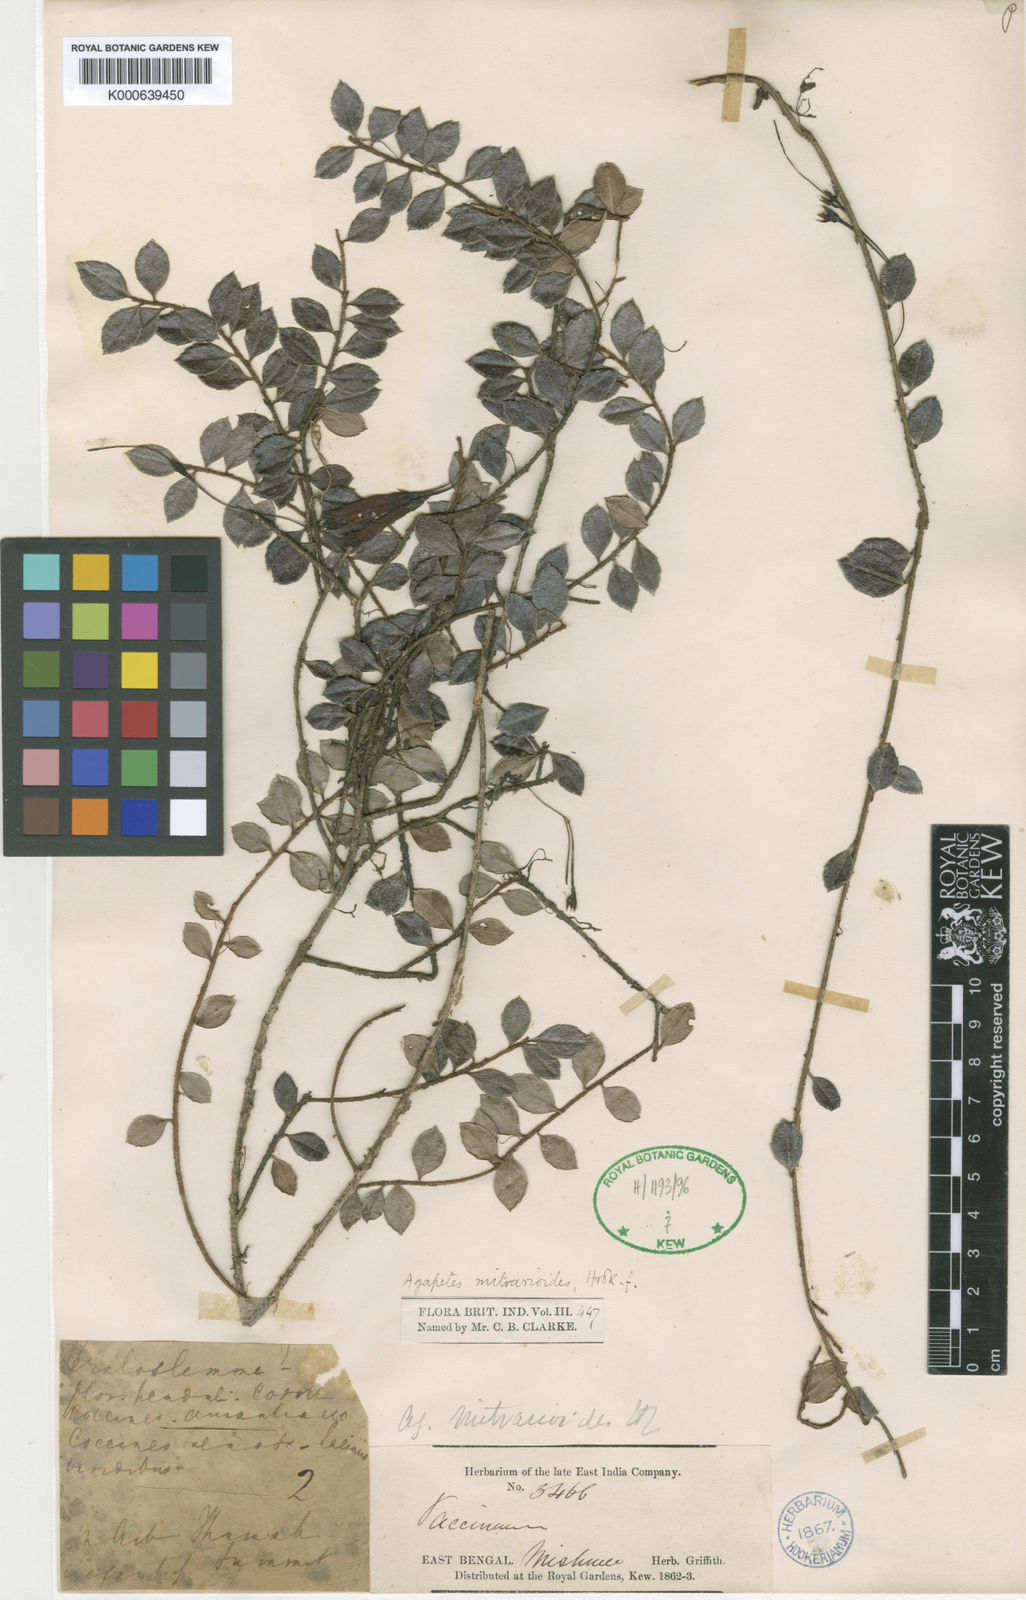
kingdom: Plantae
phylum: Tracheophyta
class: Magnoliopsida
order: Ericales
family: Ericaceae
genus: Agapetes
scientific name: Agapetes mitrarioides
